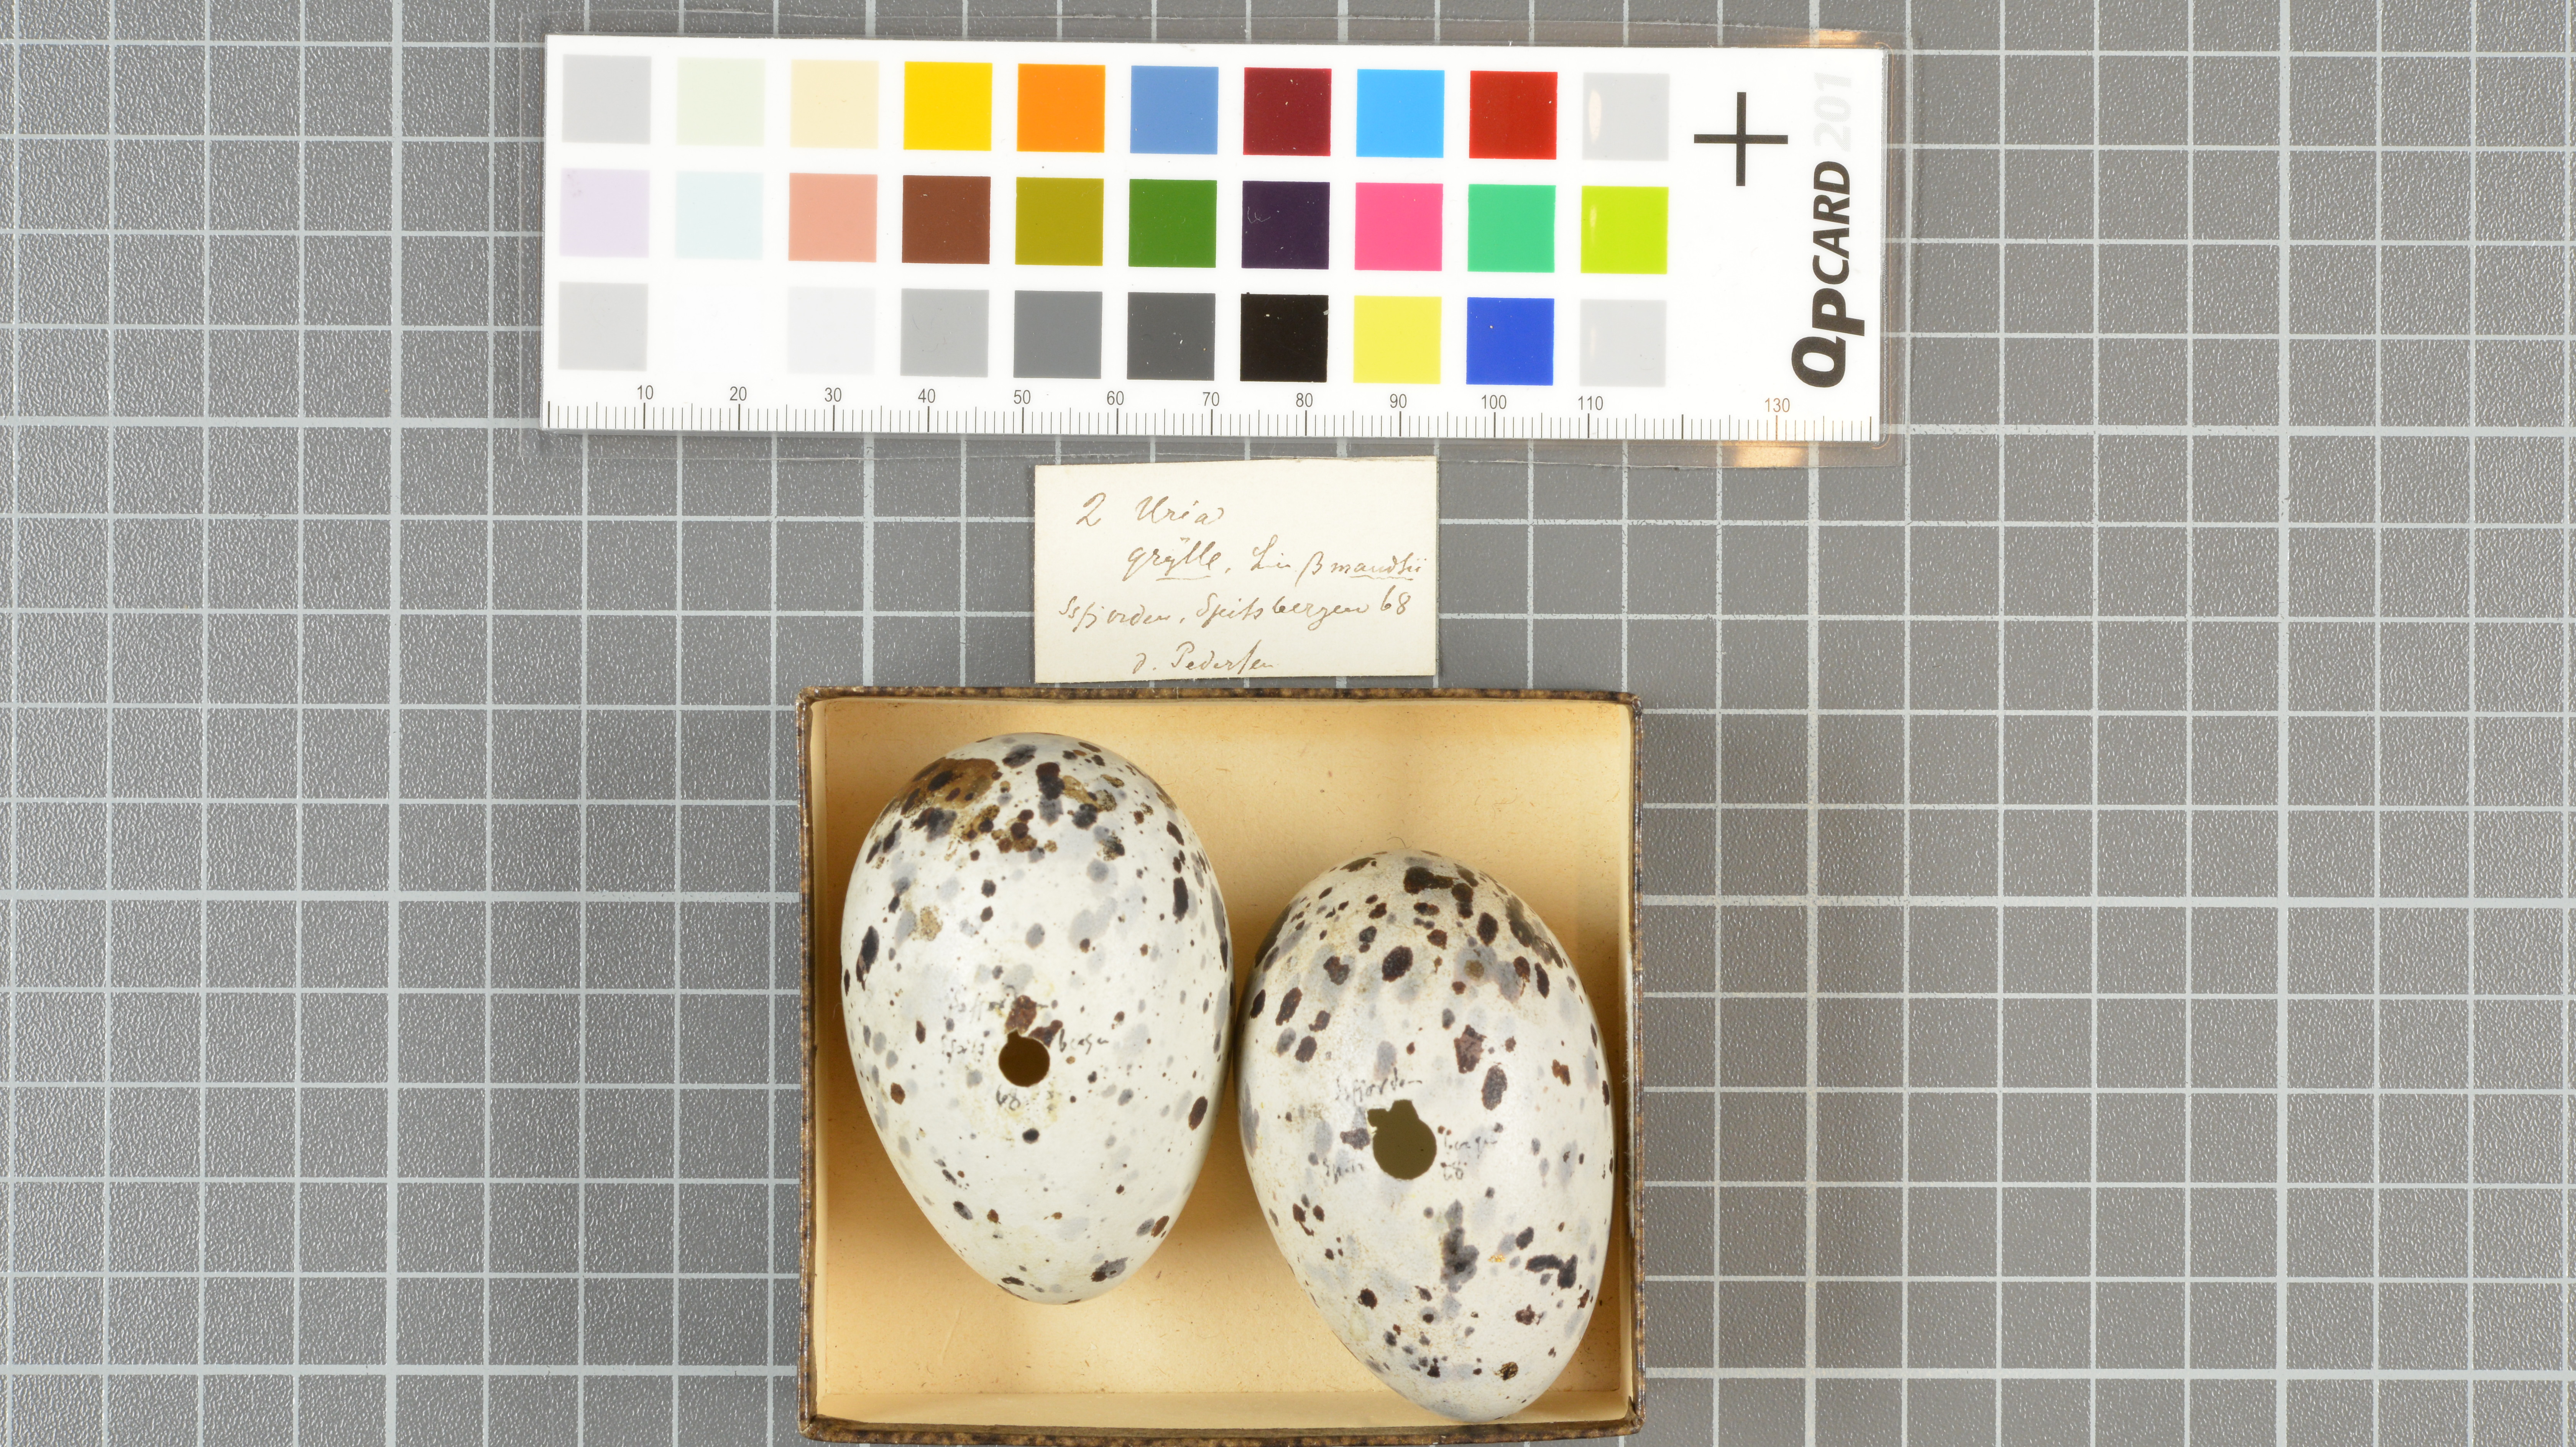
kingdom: Animalia
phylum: Chordata
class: Aves
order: Charadriiformes
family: Alcidae
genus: Cepphus
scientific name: Cepphus grylle
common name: Black guillemot
